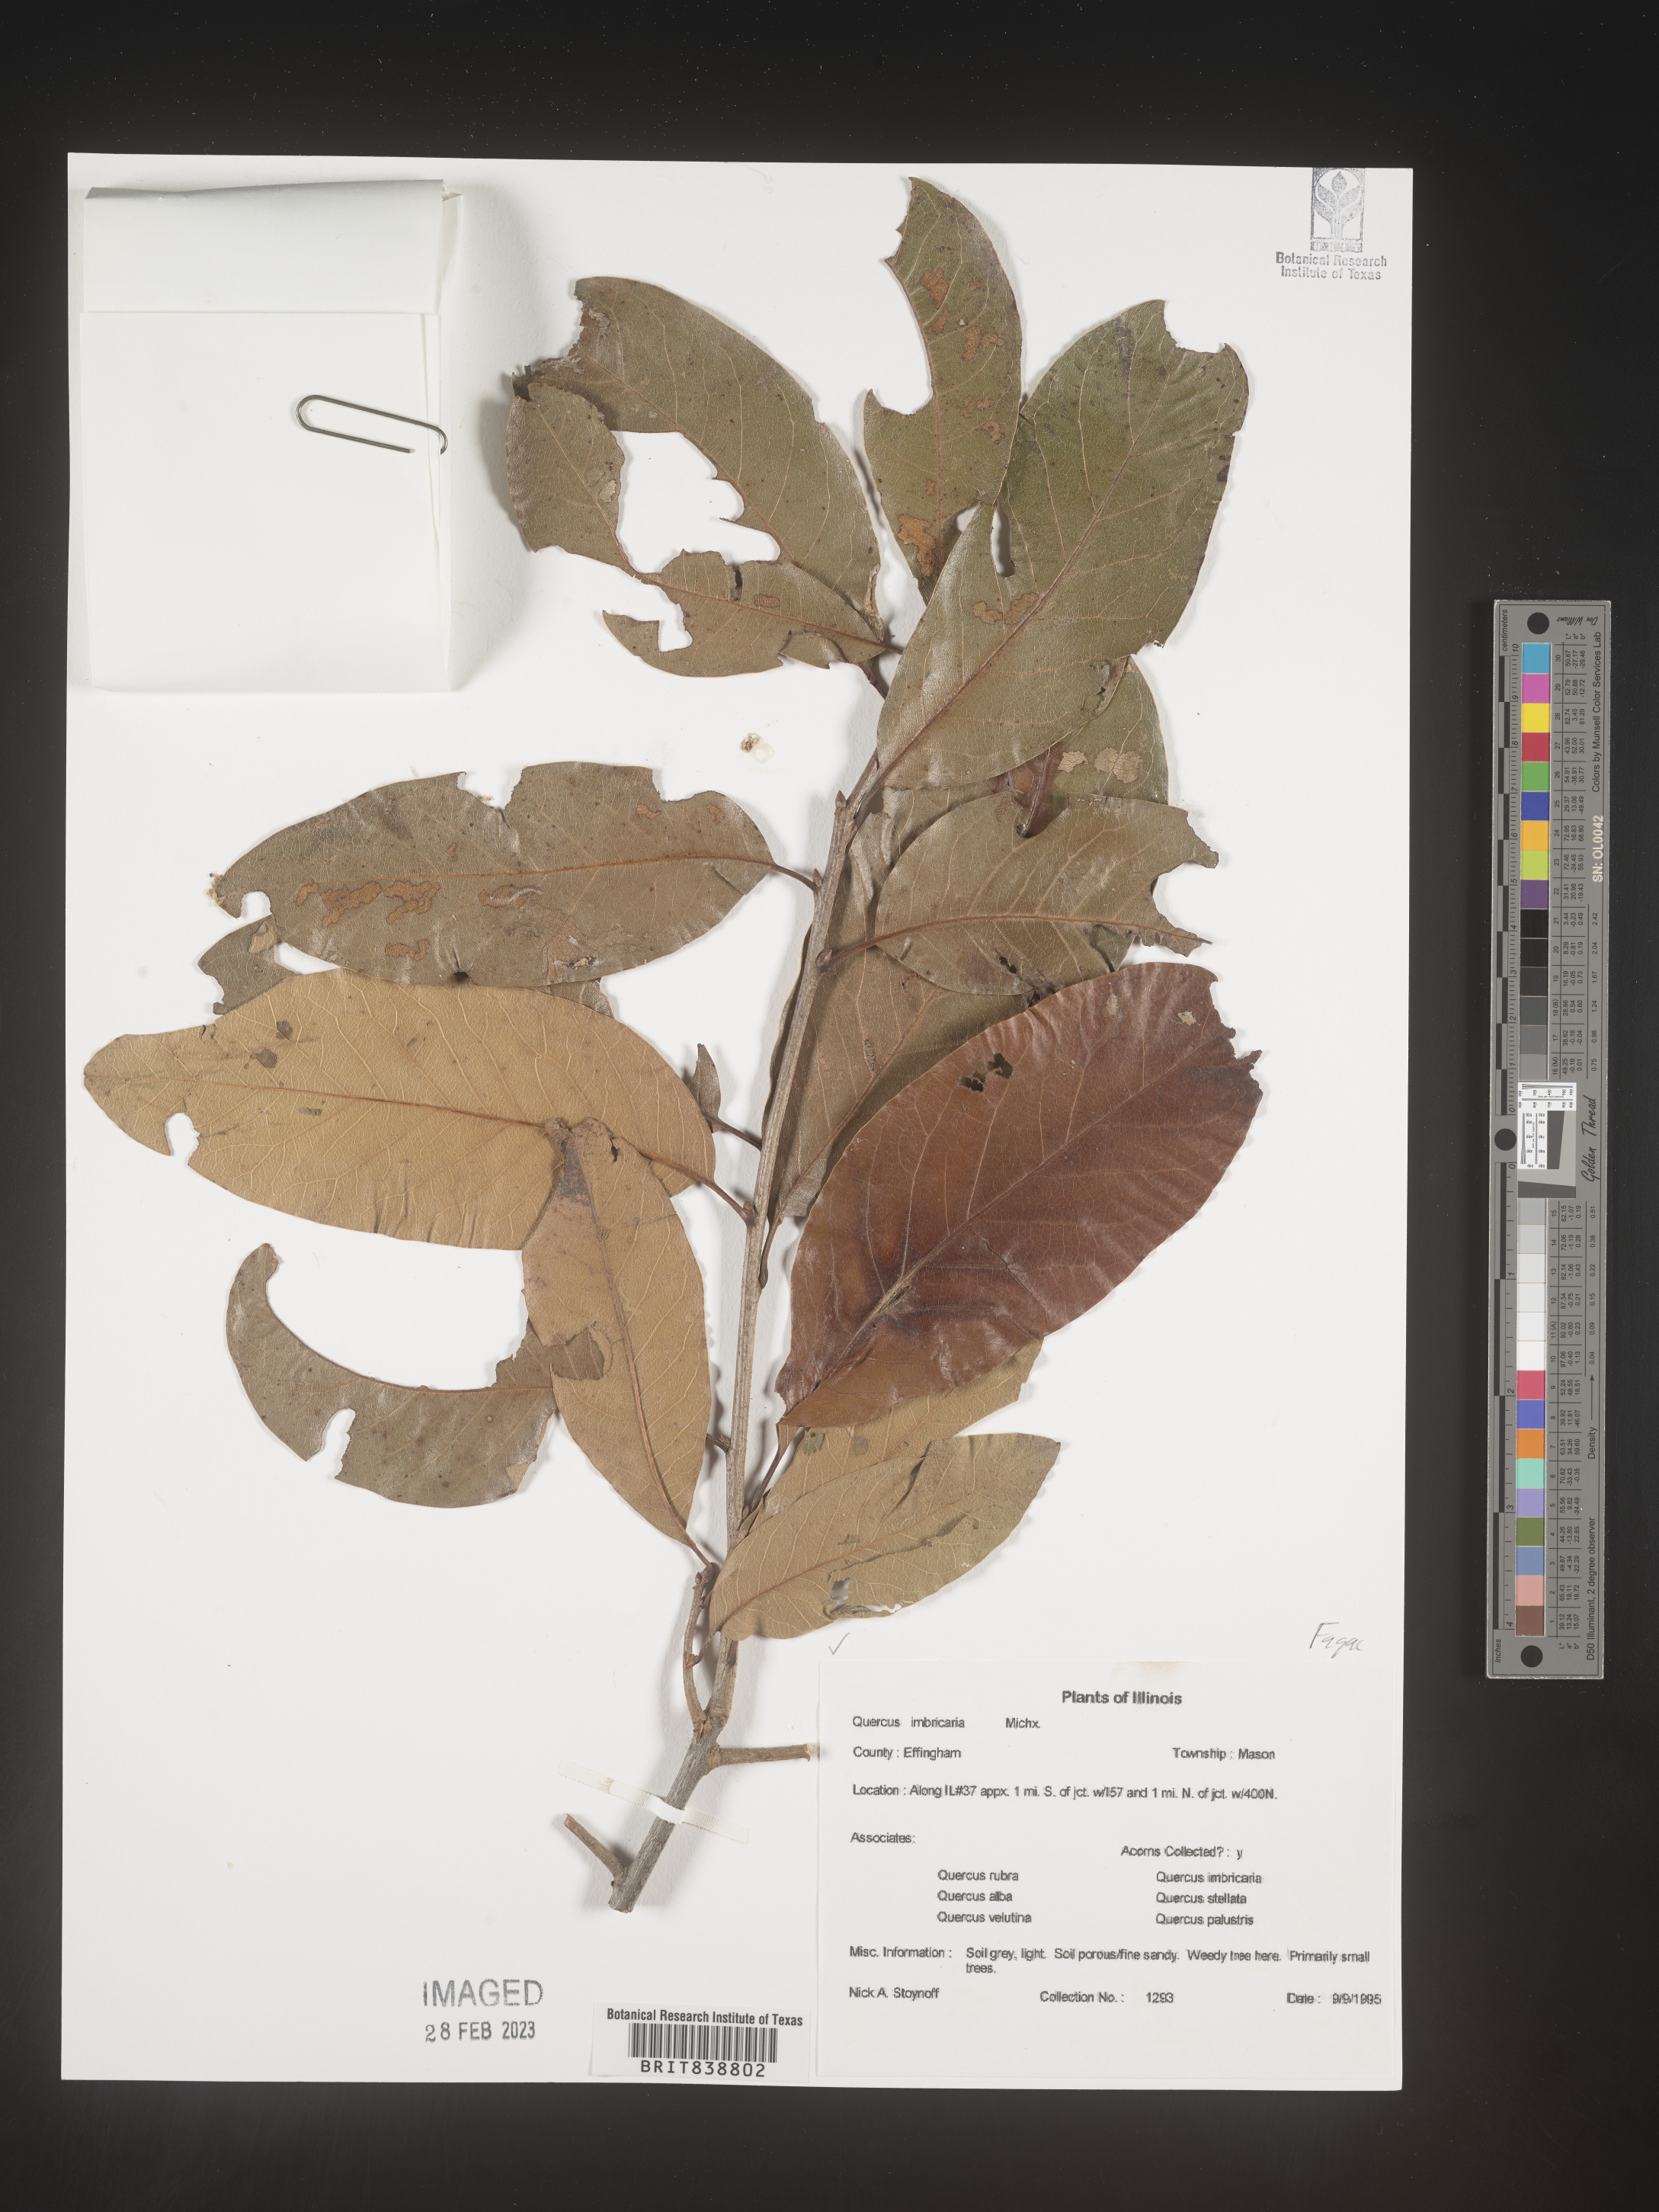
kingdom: Plantae
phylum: Tracheophyta
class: Magnoliopsida
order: Fagales
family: Fagaceae
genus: Quercus
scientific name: Quercus imbricaria
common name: Shingle oak
